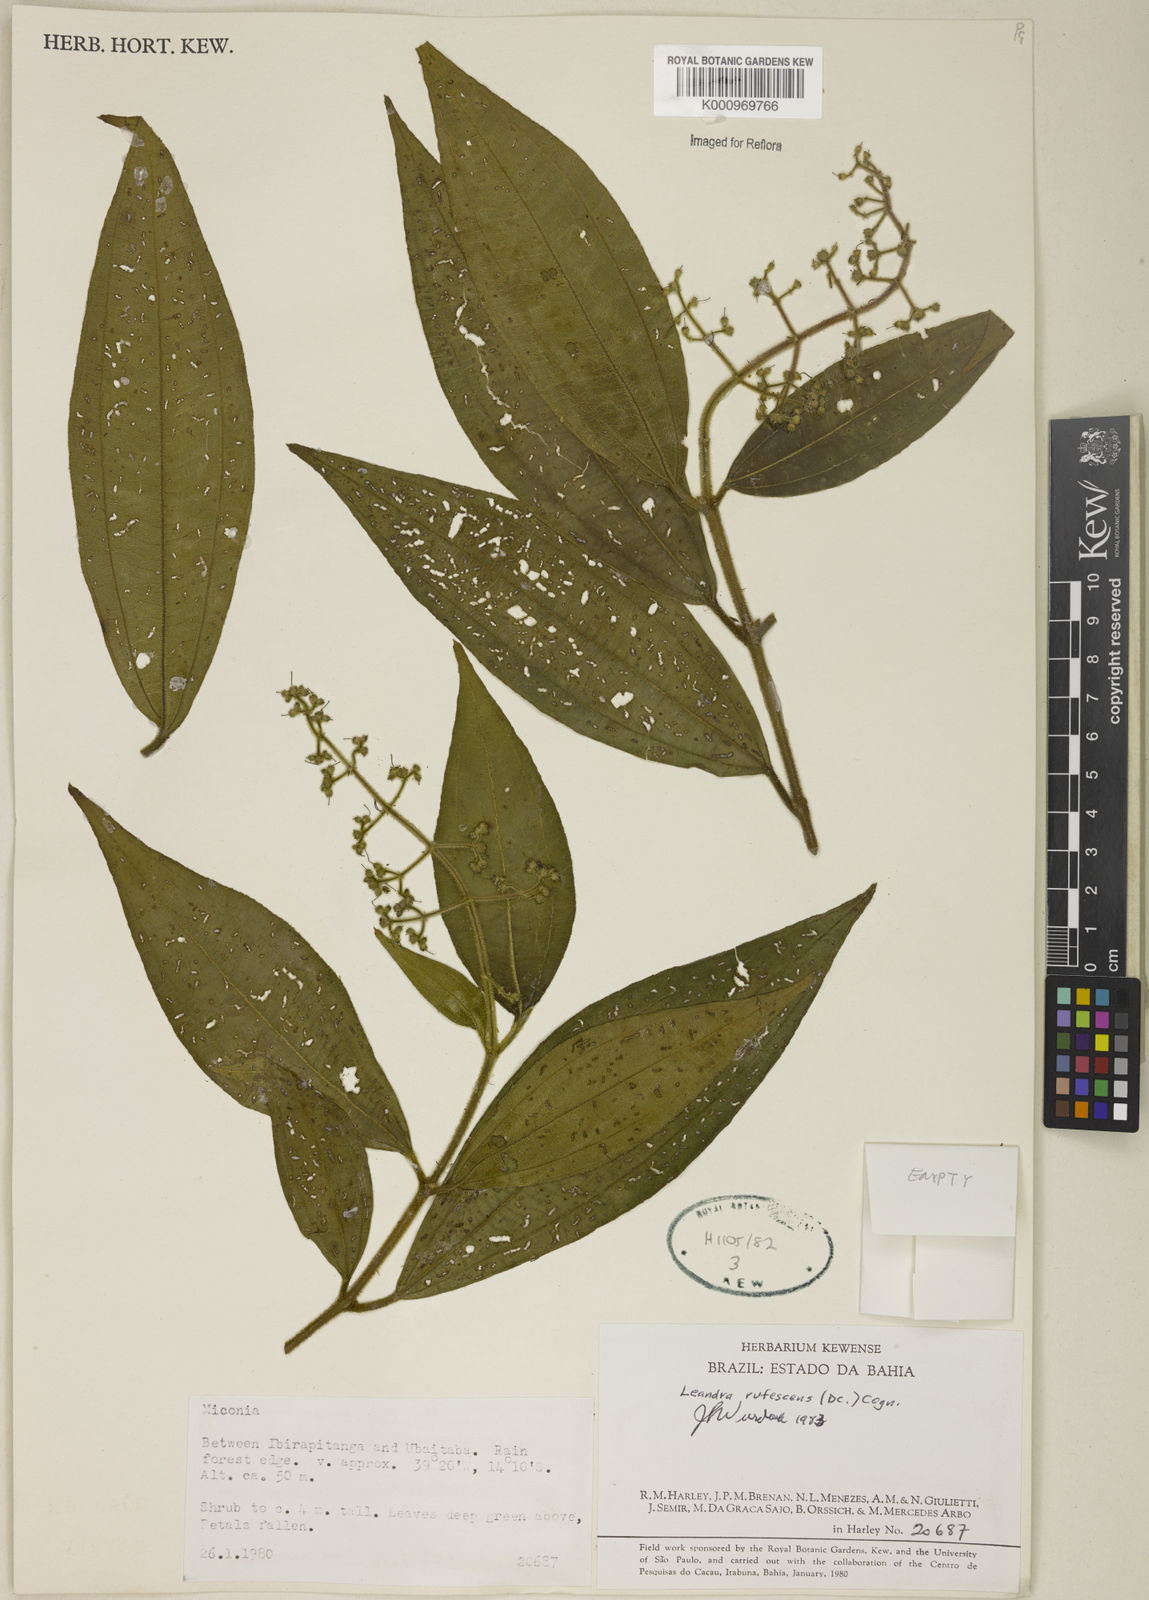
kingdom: Plantae
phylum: Tracheophyta
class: Magnoliopsida
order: Myrtales
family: Melastomataceae
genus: Miconia
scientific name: Miconia asperiuscula
